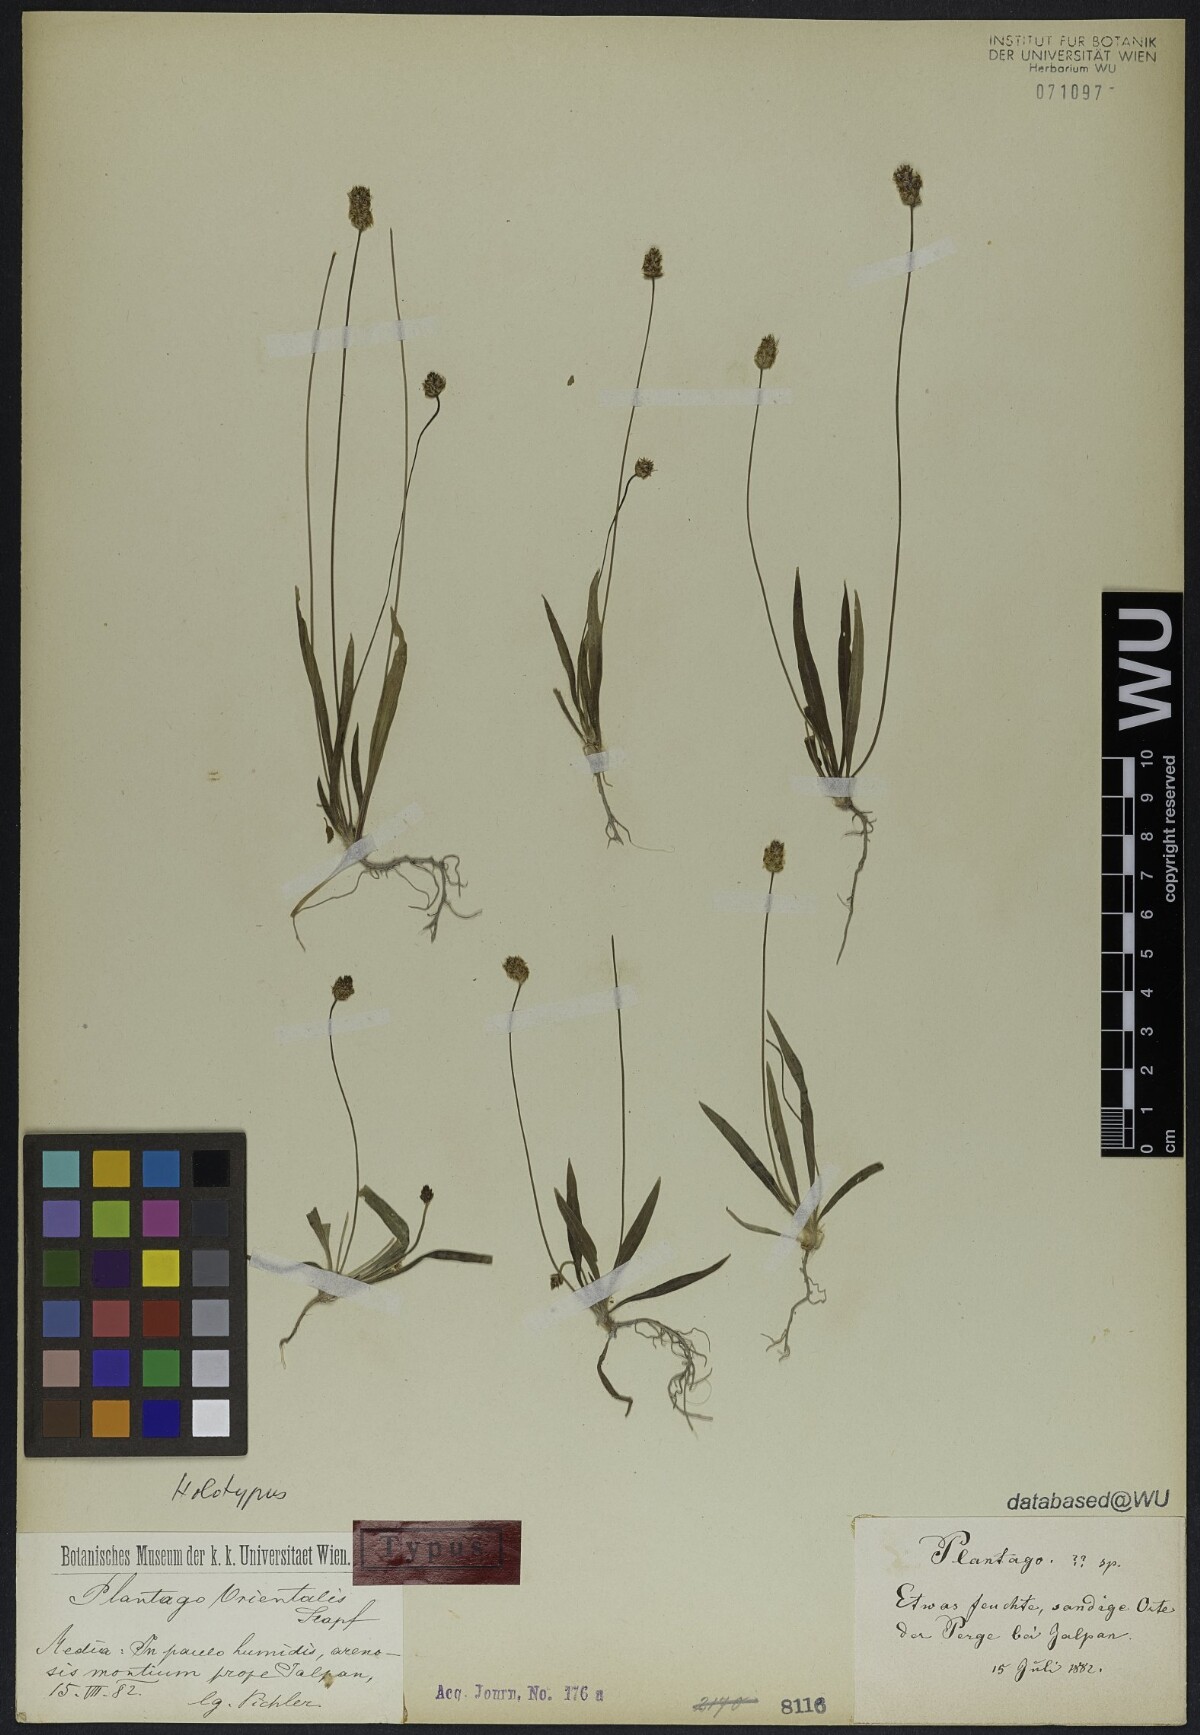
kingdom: Plantae
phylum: Tracheophyta
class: Magnoliopsida
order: Lamiales
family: Plantaginaceae
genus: Plantago
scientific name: Plantago lanceolata
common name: Ribwort plantain
